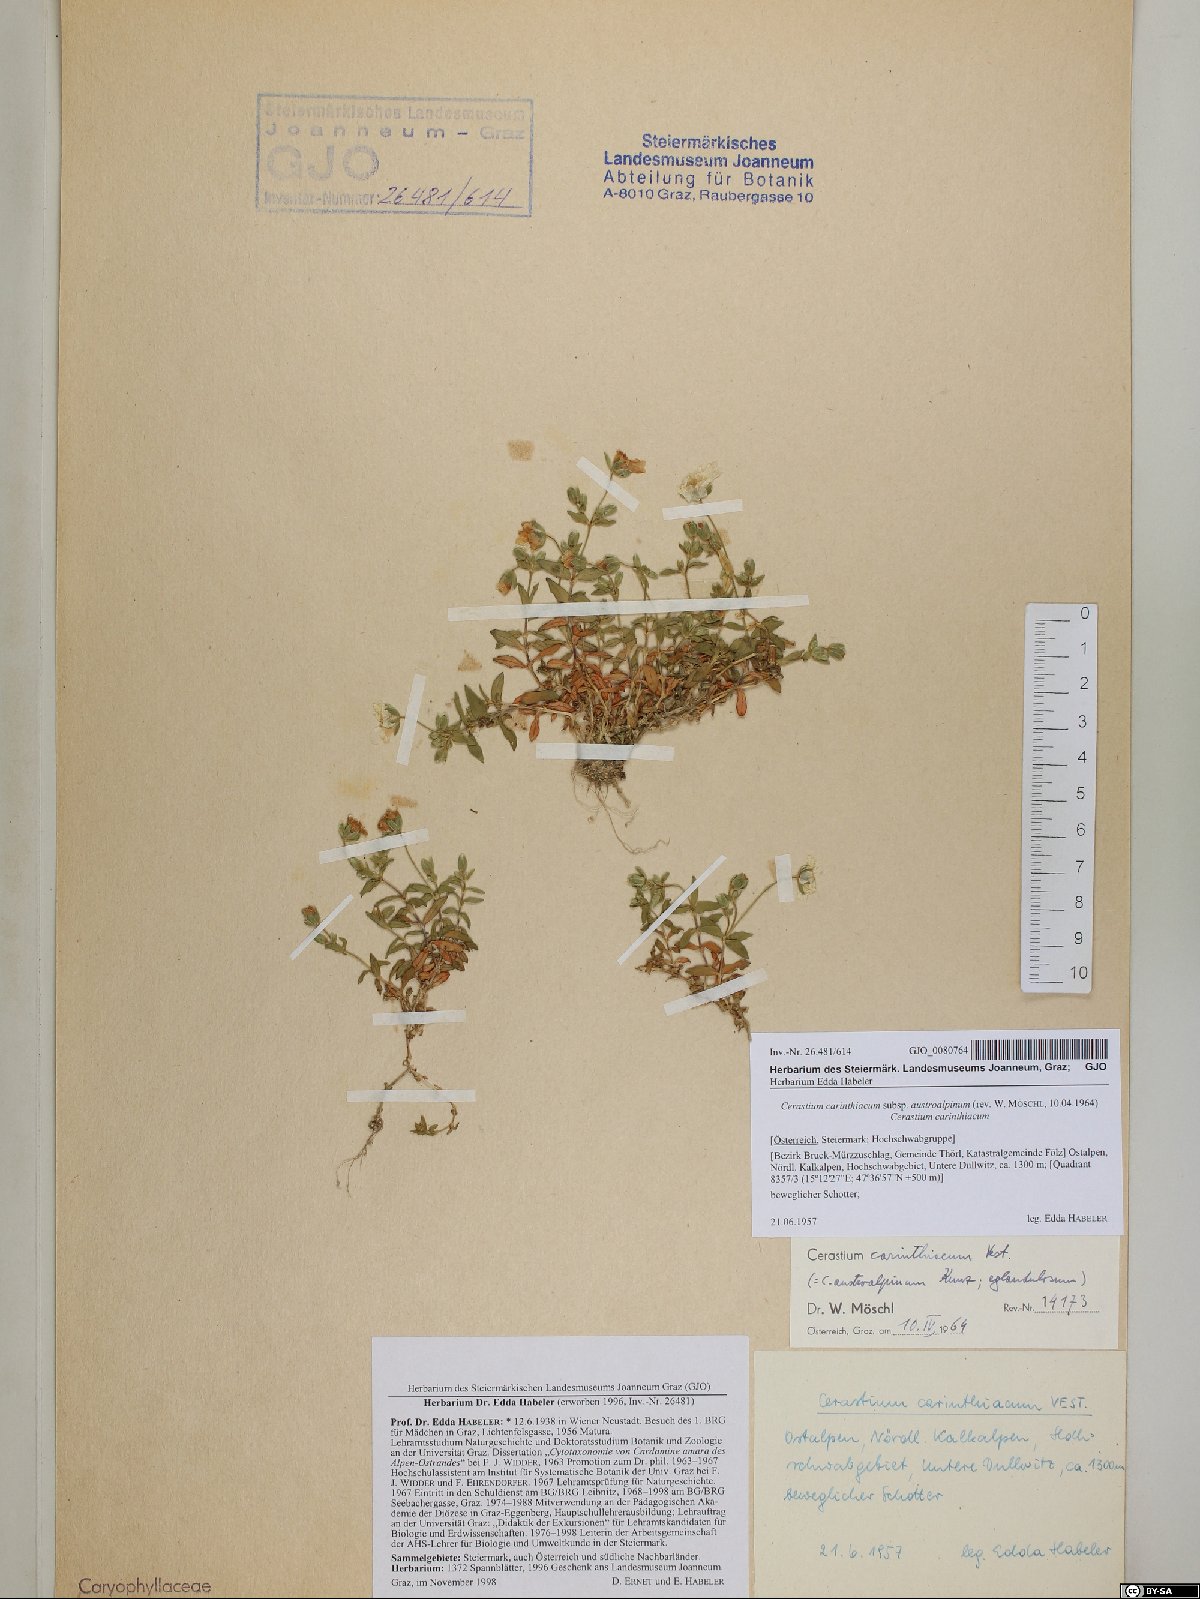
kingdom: Plantae
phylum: Tracheophyta
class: Magnoliopsida
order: Caryophyllales
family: Caryophyllaceae
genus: Cerastium
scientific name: Cerastium carinthiacum
